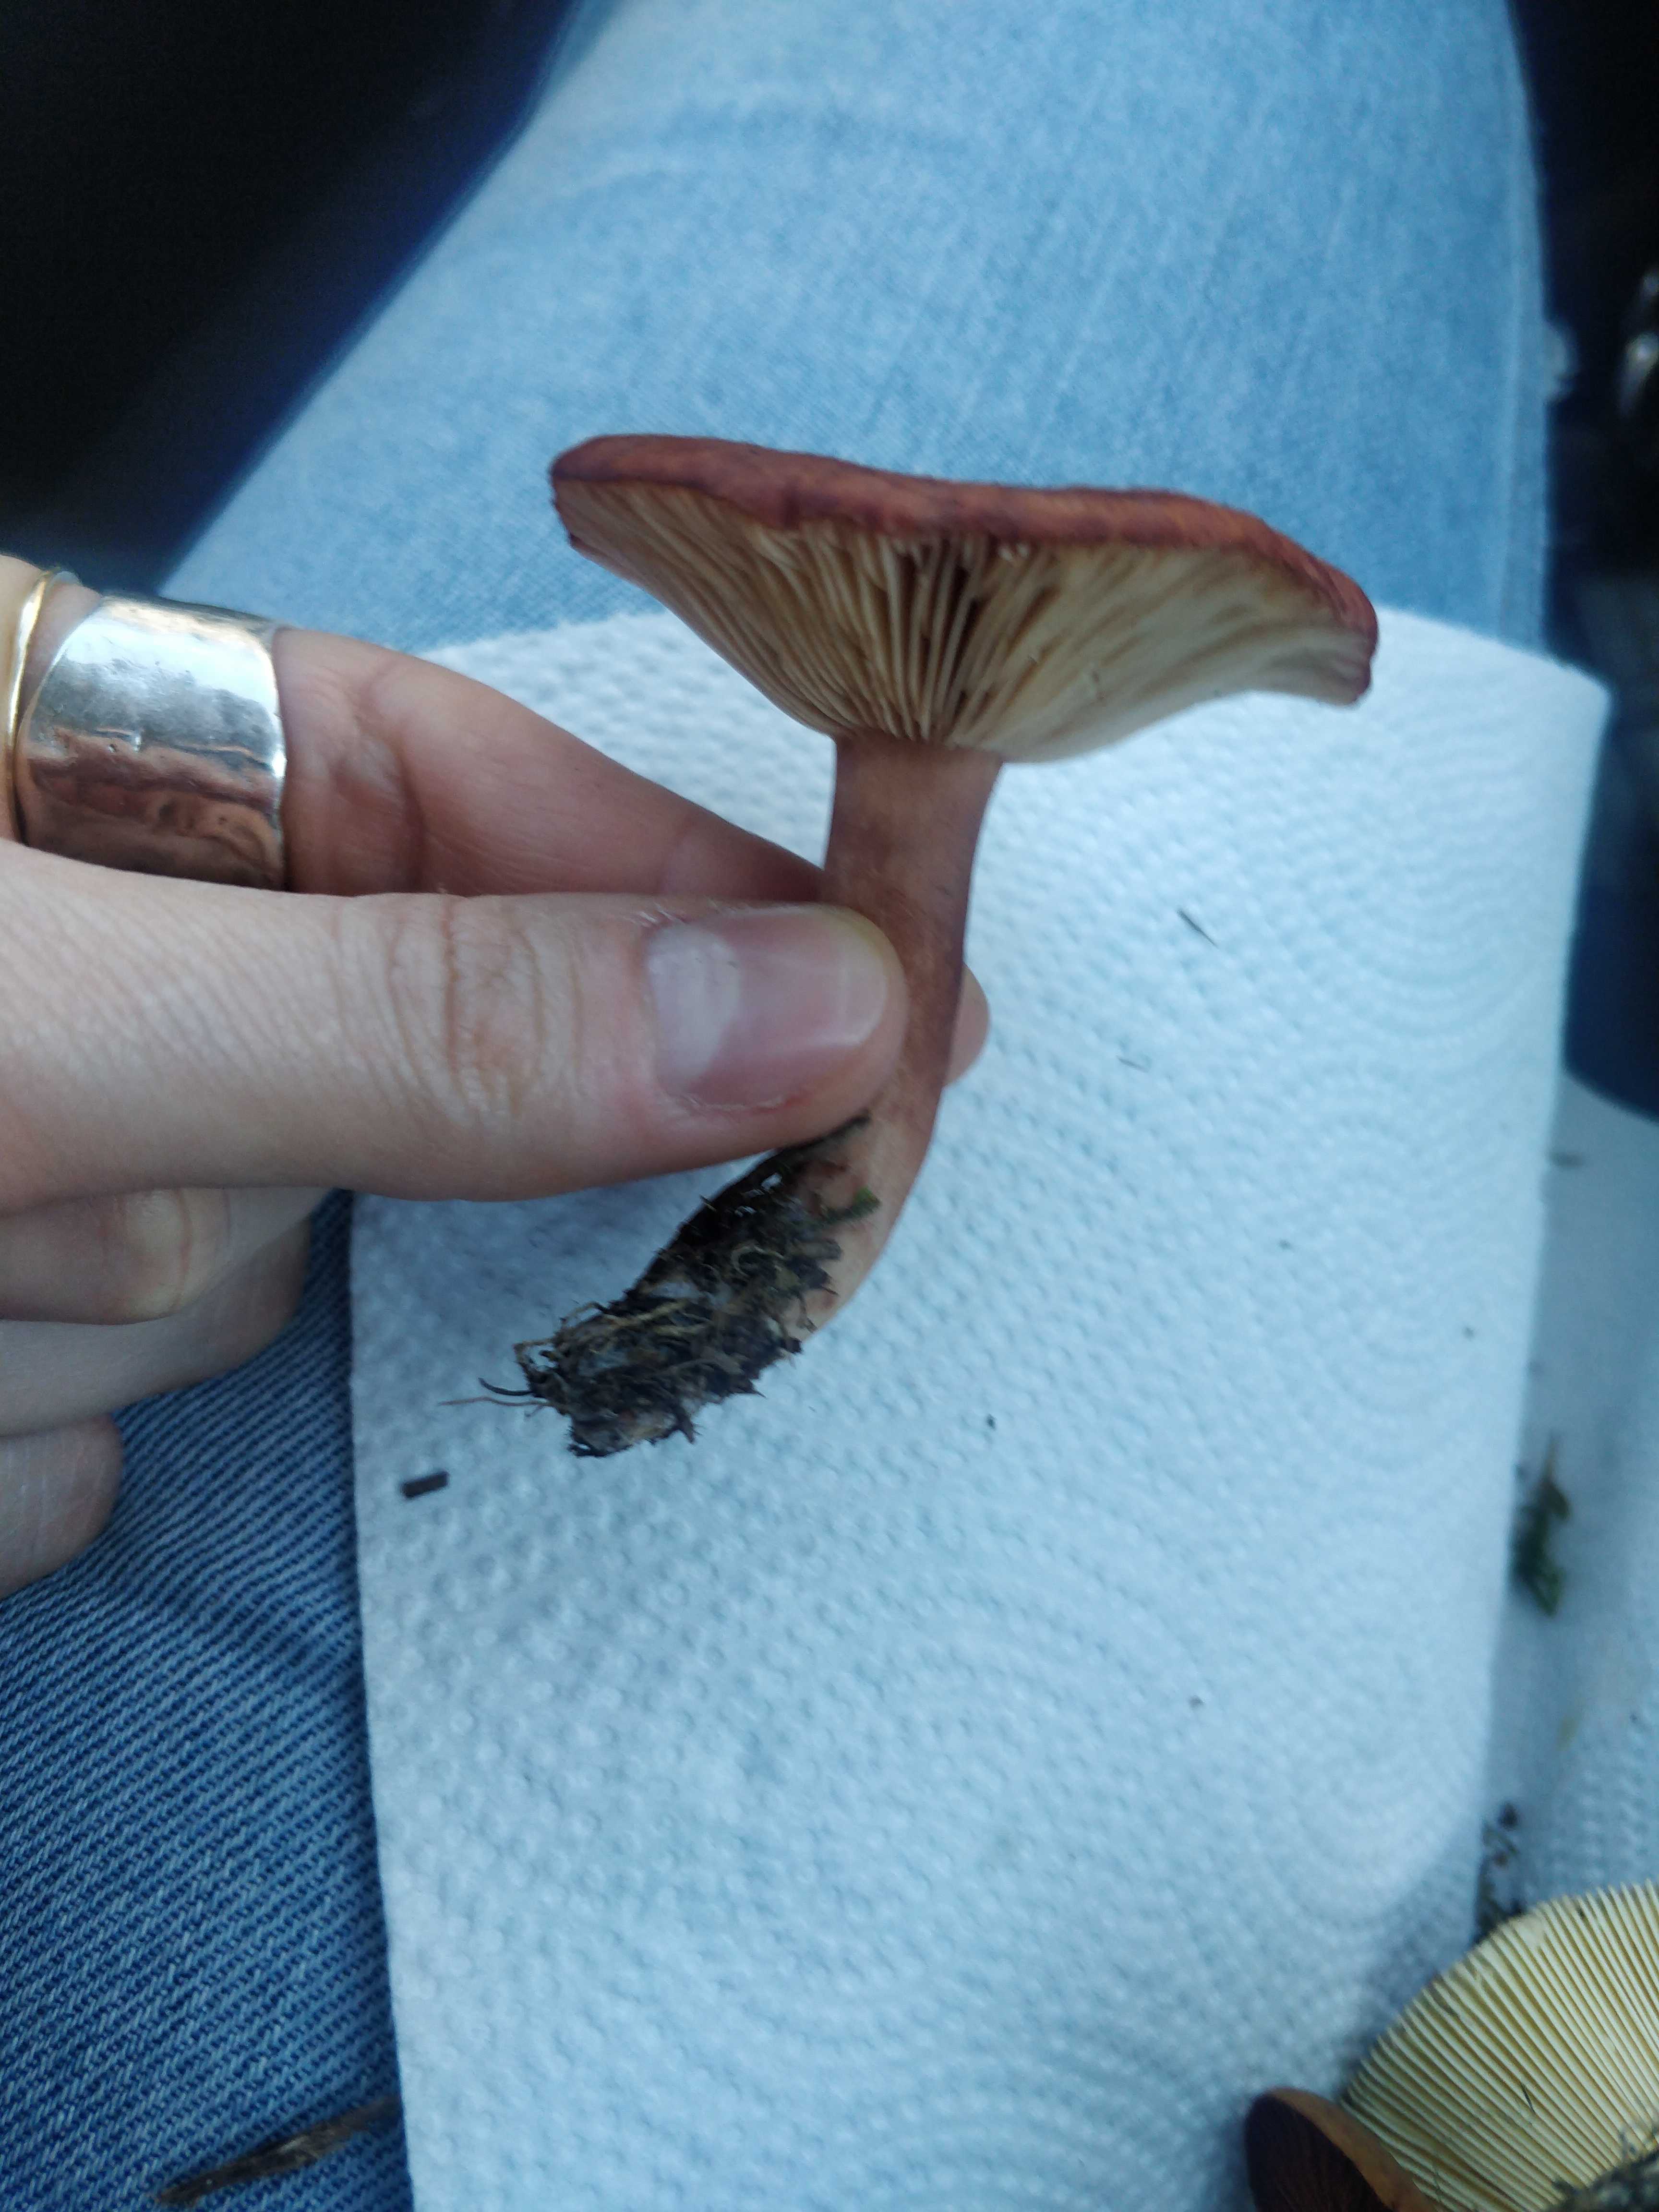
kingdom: Fungi
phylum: Basidiomycota
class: Agaricomycetes
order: Russulales
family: Russulaceae
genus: Lactarius
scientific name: Lactarius camphoratus
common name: kamfer-mælkehat
